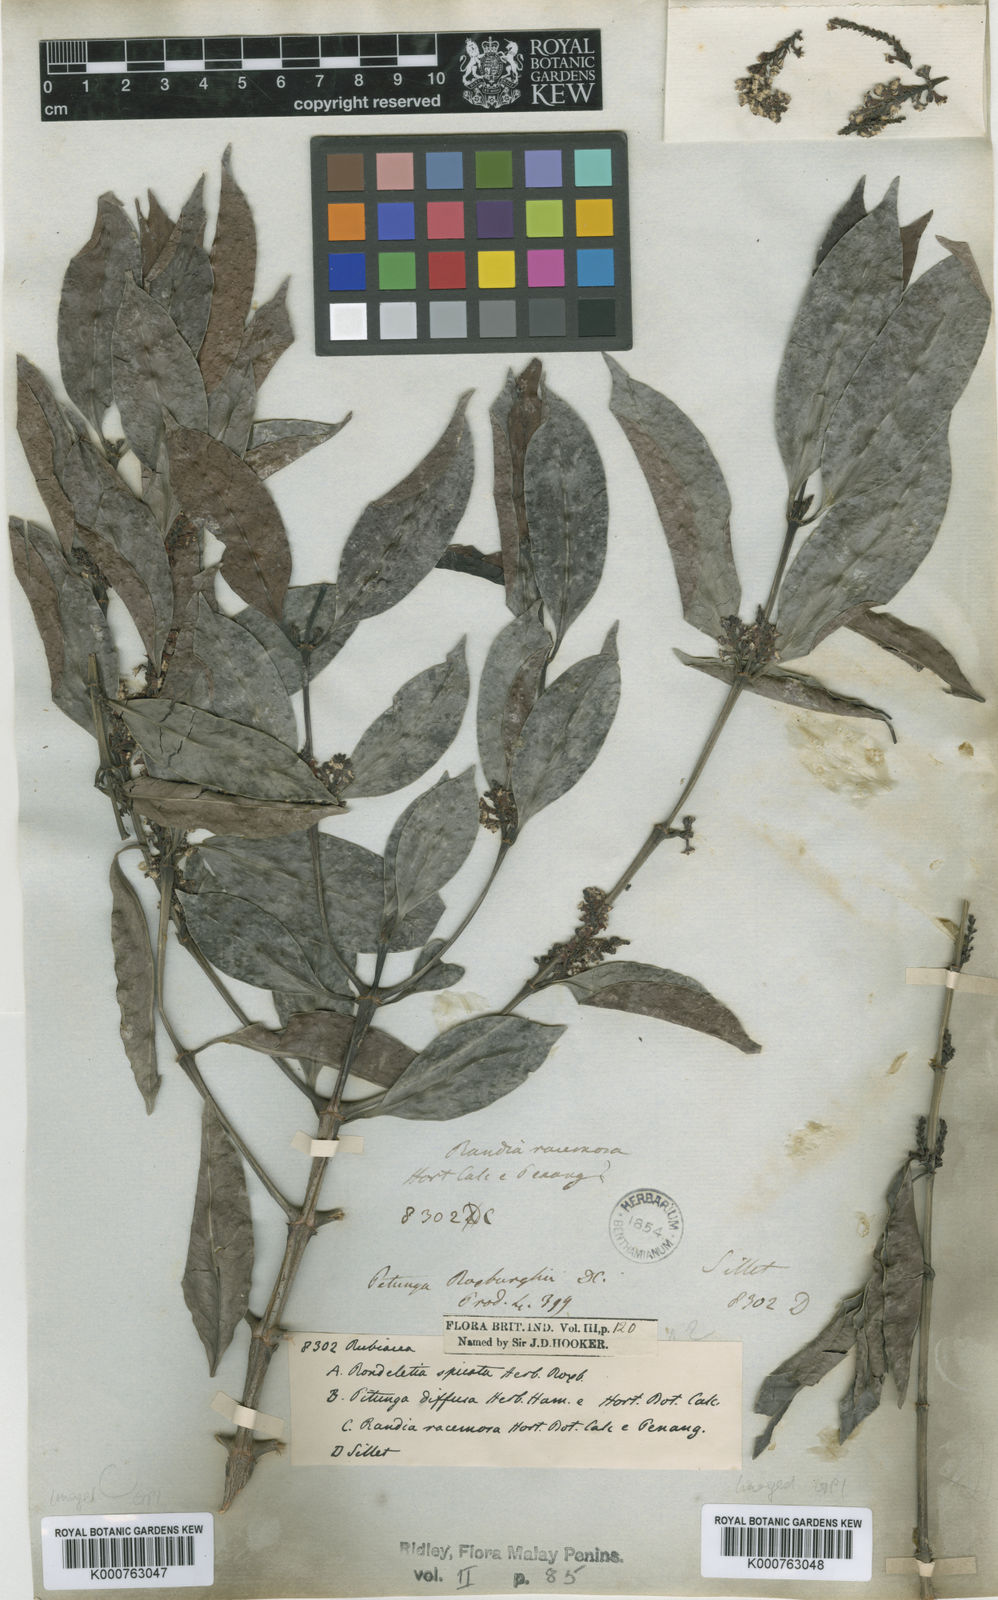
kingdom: Plantae
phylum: Tracheophyta
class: Magnoliopsida
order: Gentianales
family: Rubiaceae
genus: Hypobathrum
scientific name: Hypobathrum racemosum
